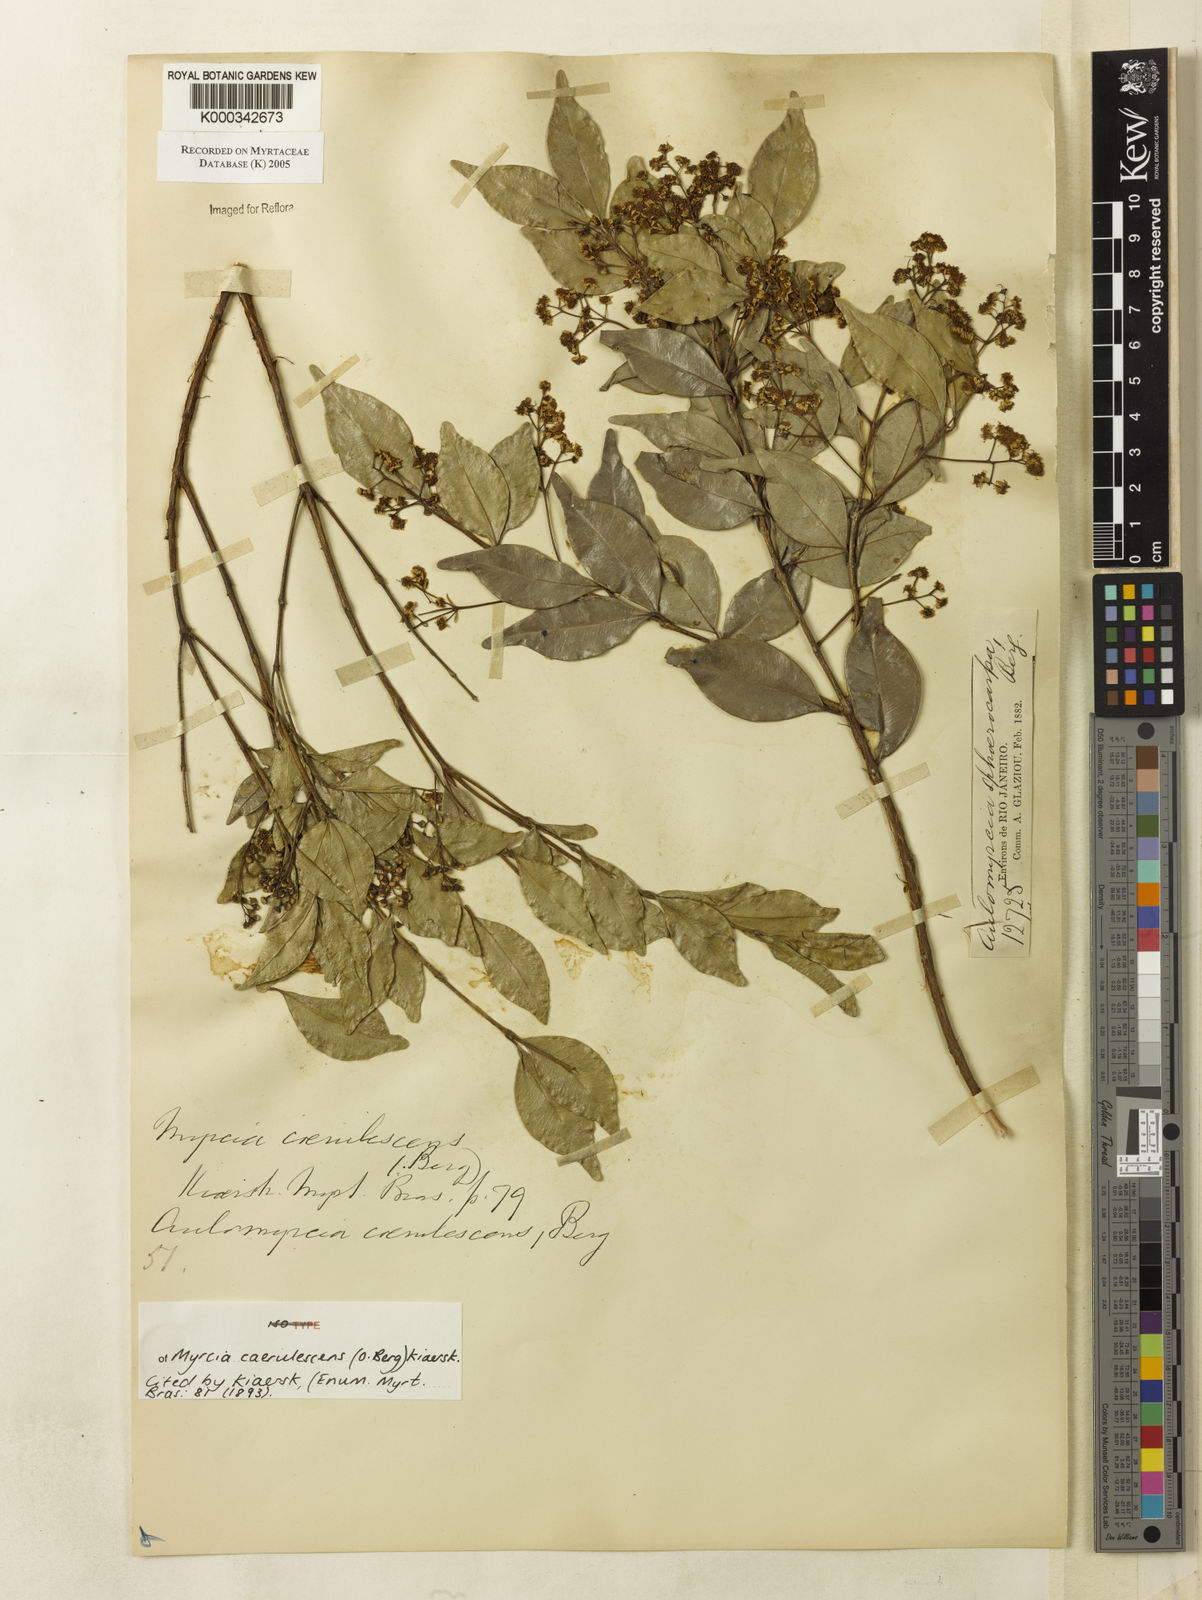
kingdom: Plantae
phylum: Tracheophyta
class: Magnoliopsida
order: Myrtales
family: Myrtaceae
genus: Myrcia
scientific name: Myrcia multiflora
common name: Pedra hume
